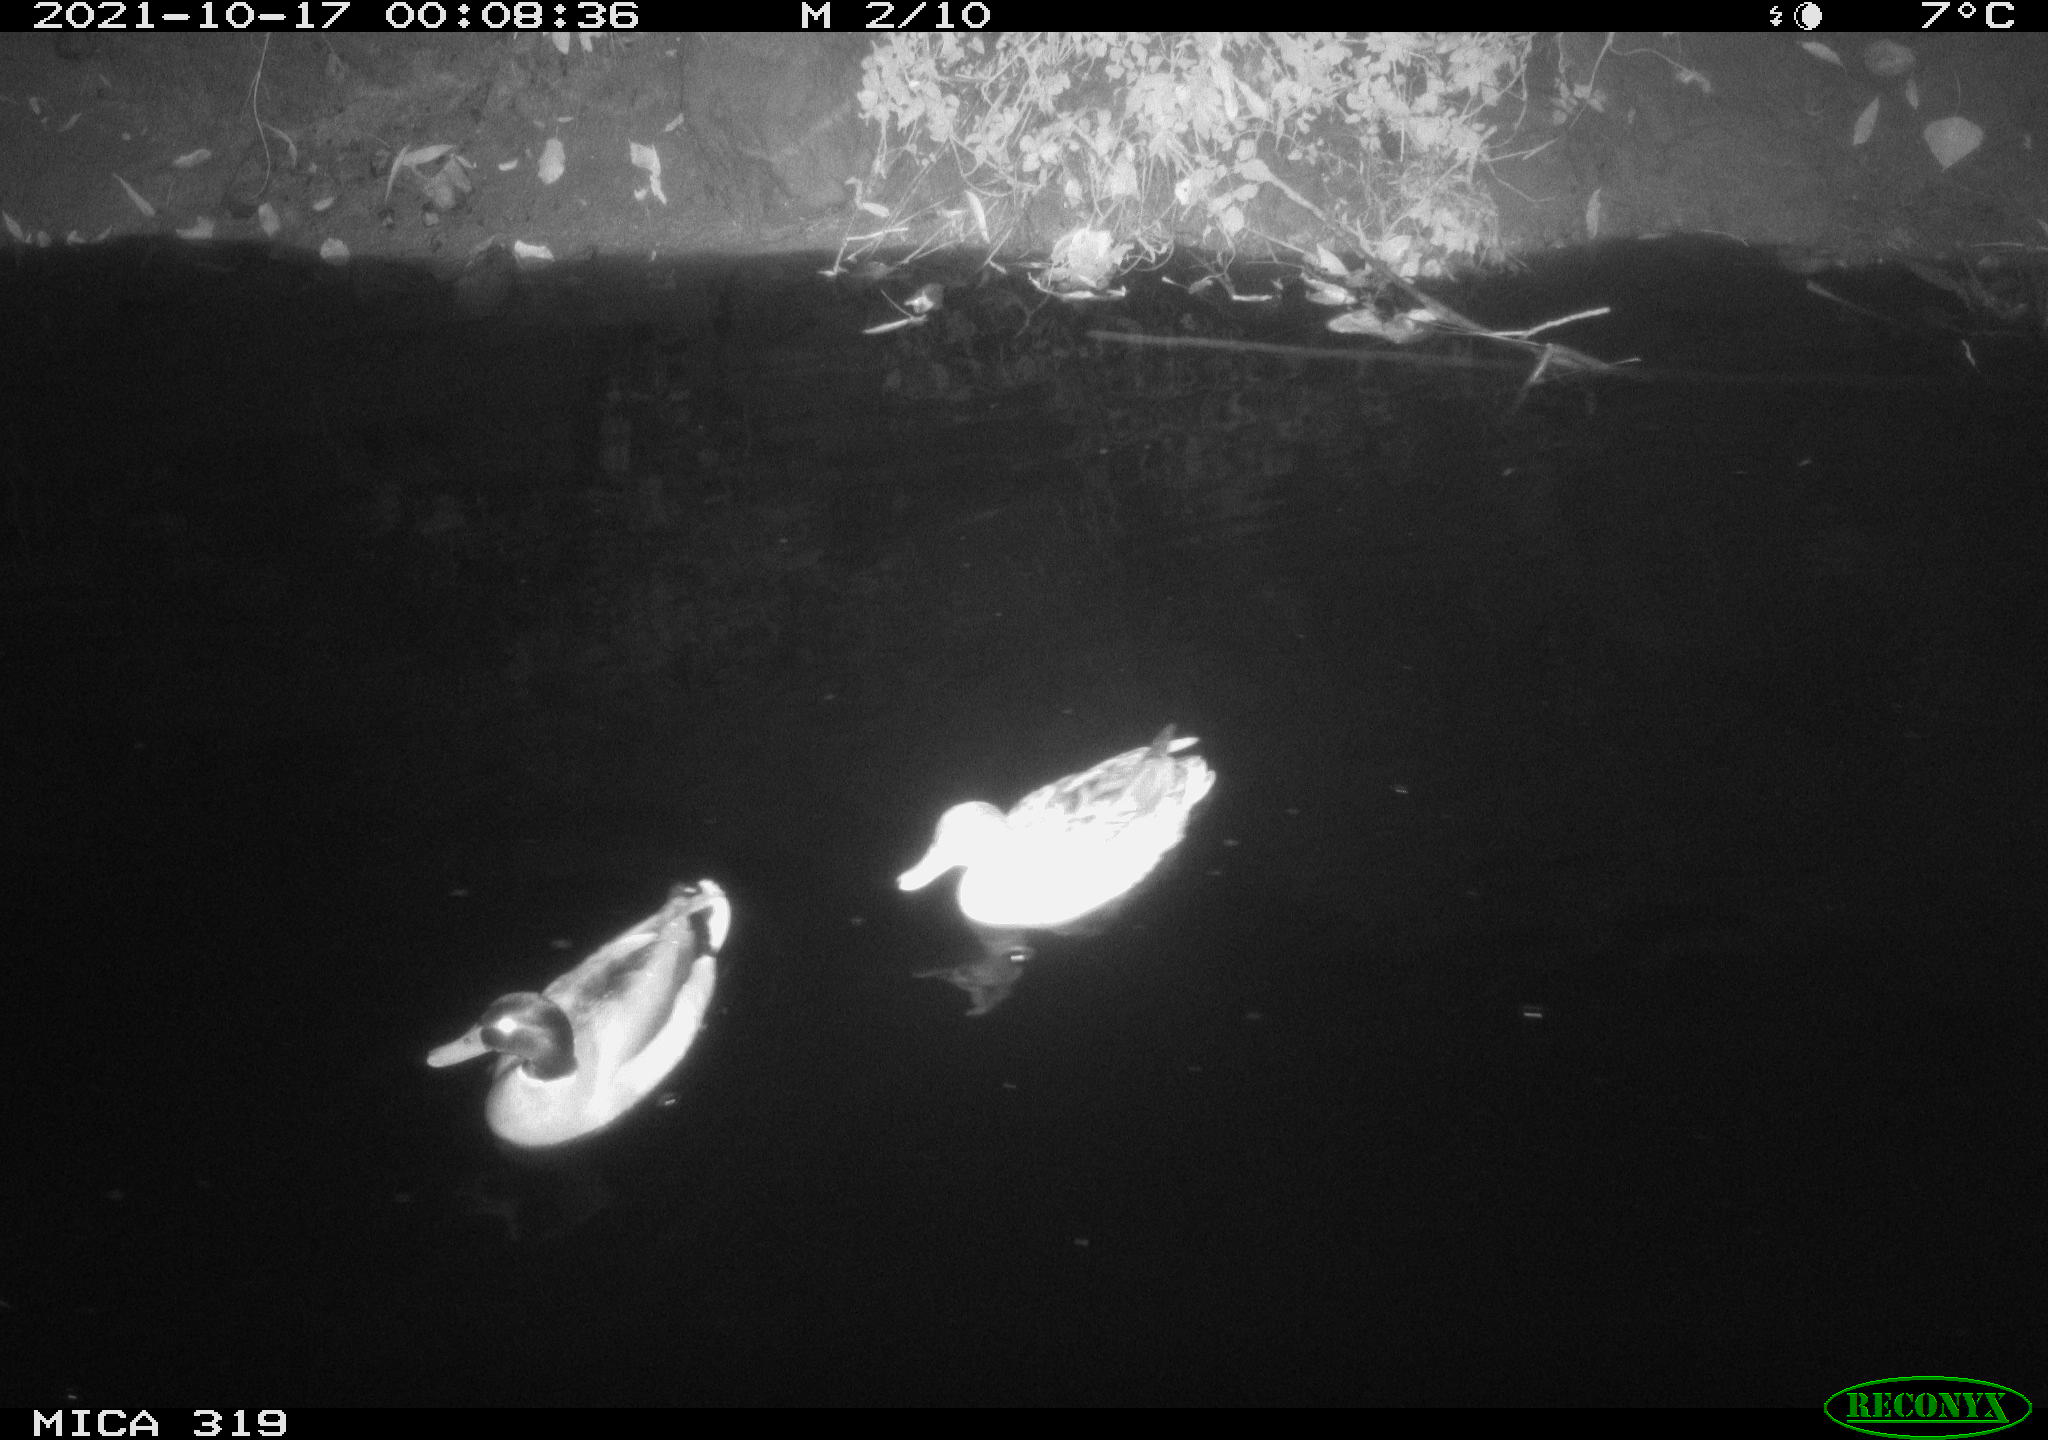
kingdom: Animalia
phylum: Chordata
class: Aves
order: Anseriformes
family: Anatidae
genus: Anas
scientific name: Anas platyrhynchos
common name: Mallard
